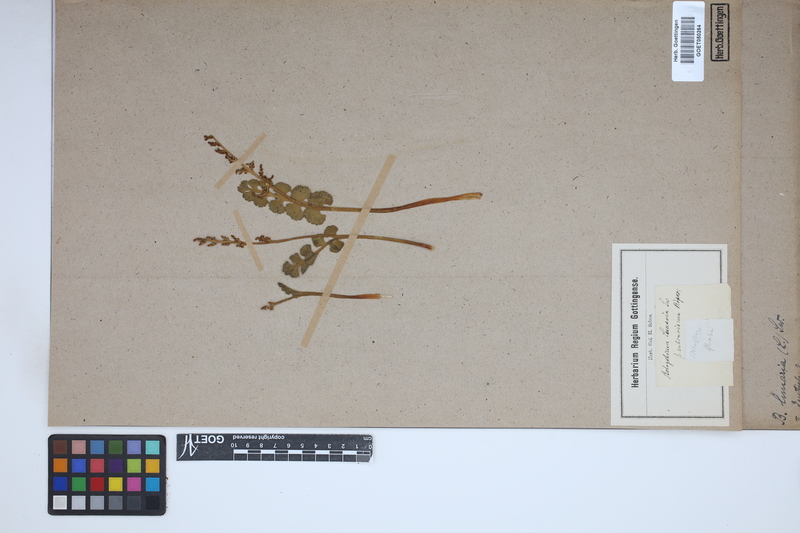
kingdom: Plantae
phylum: Tracheophyta
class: Polypodiopsida
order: Ophioglossales
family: Ophioglossaceae
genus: Botrychium
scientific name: Botrychium lunaria
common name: Moonwort
